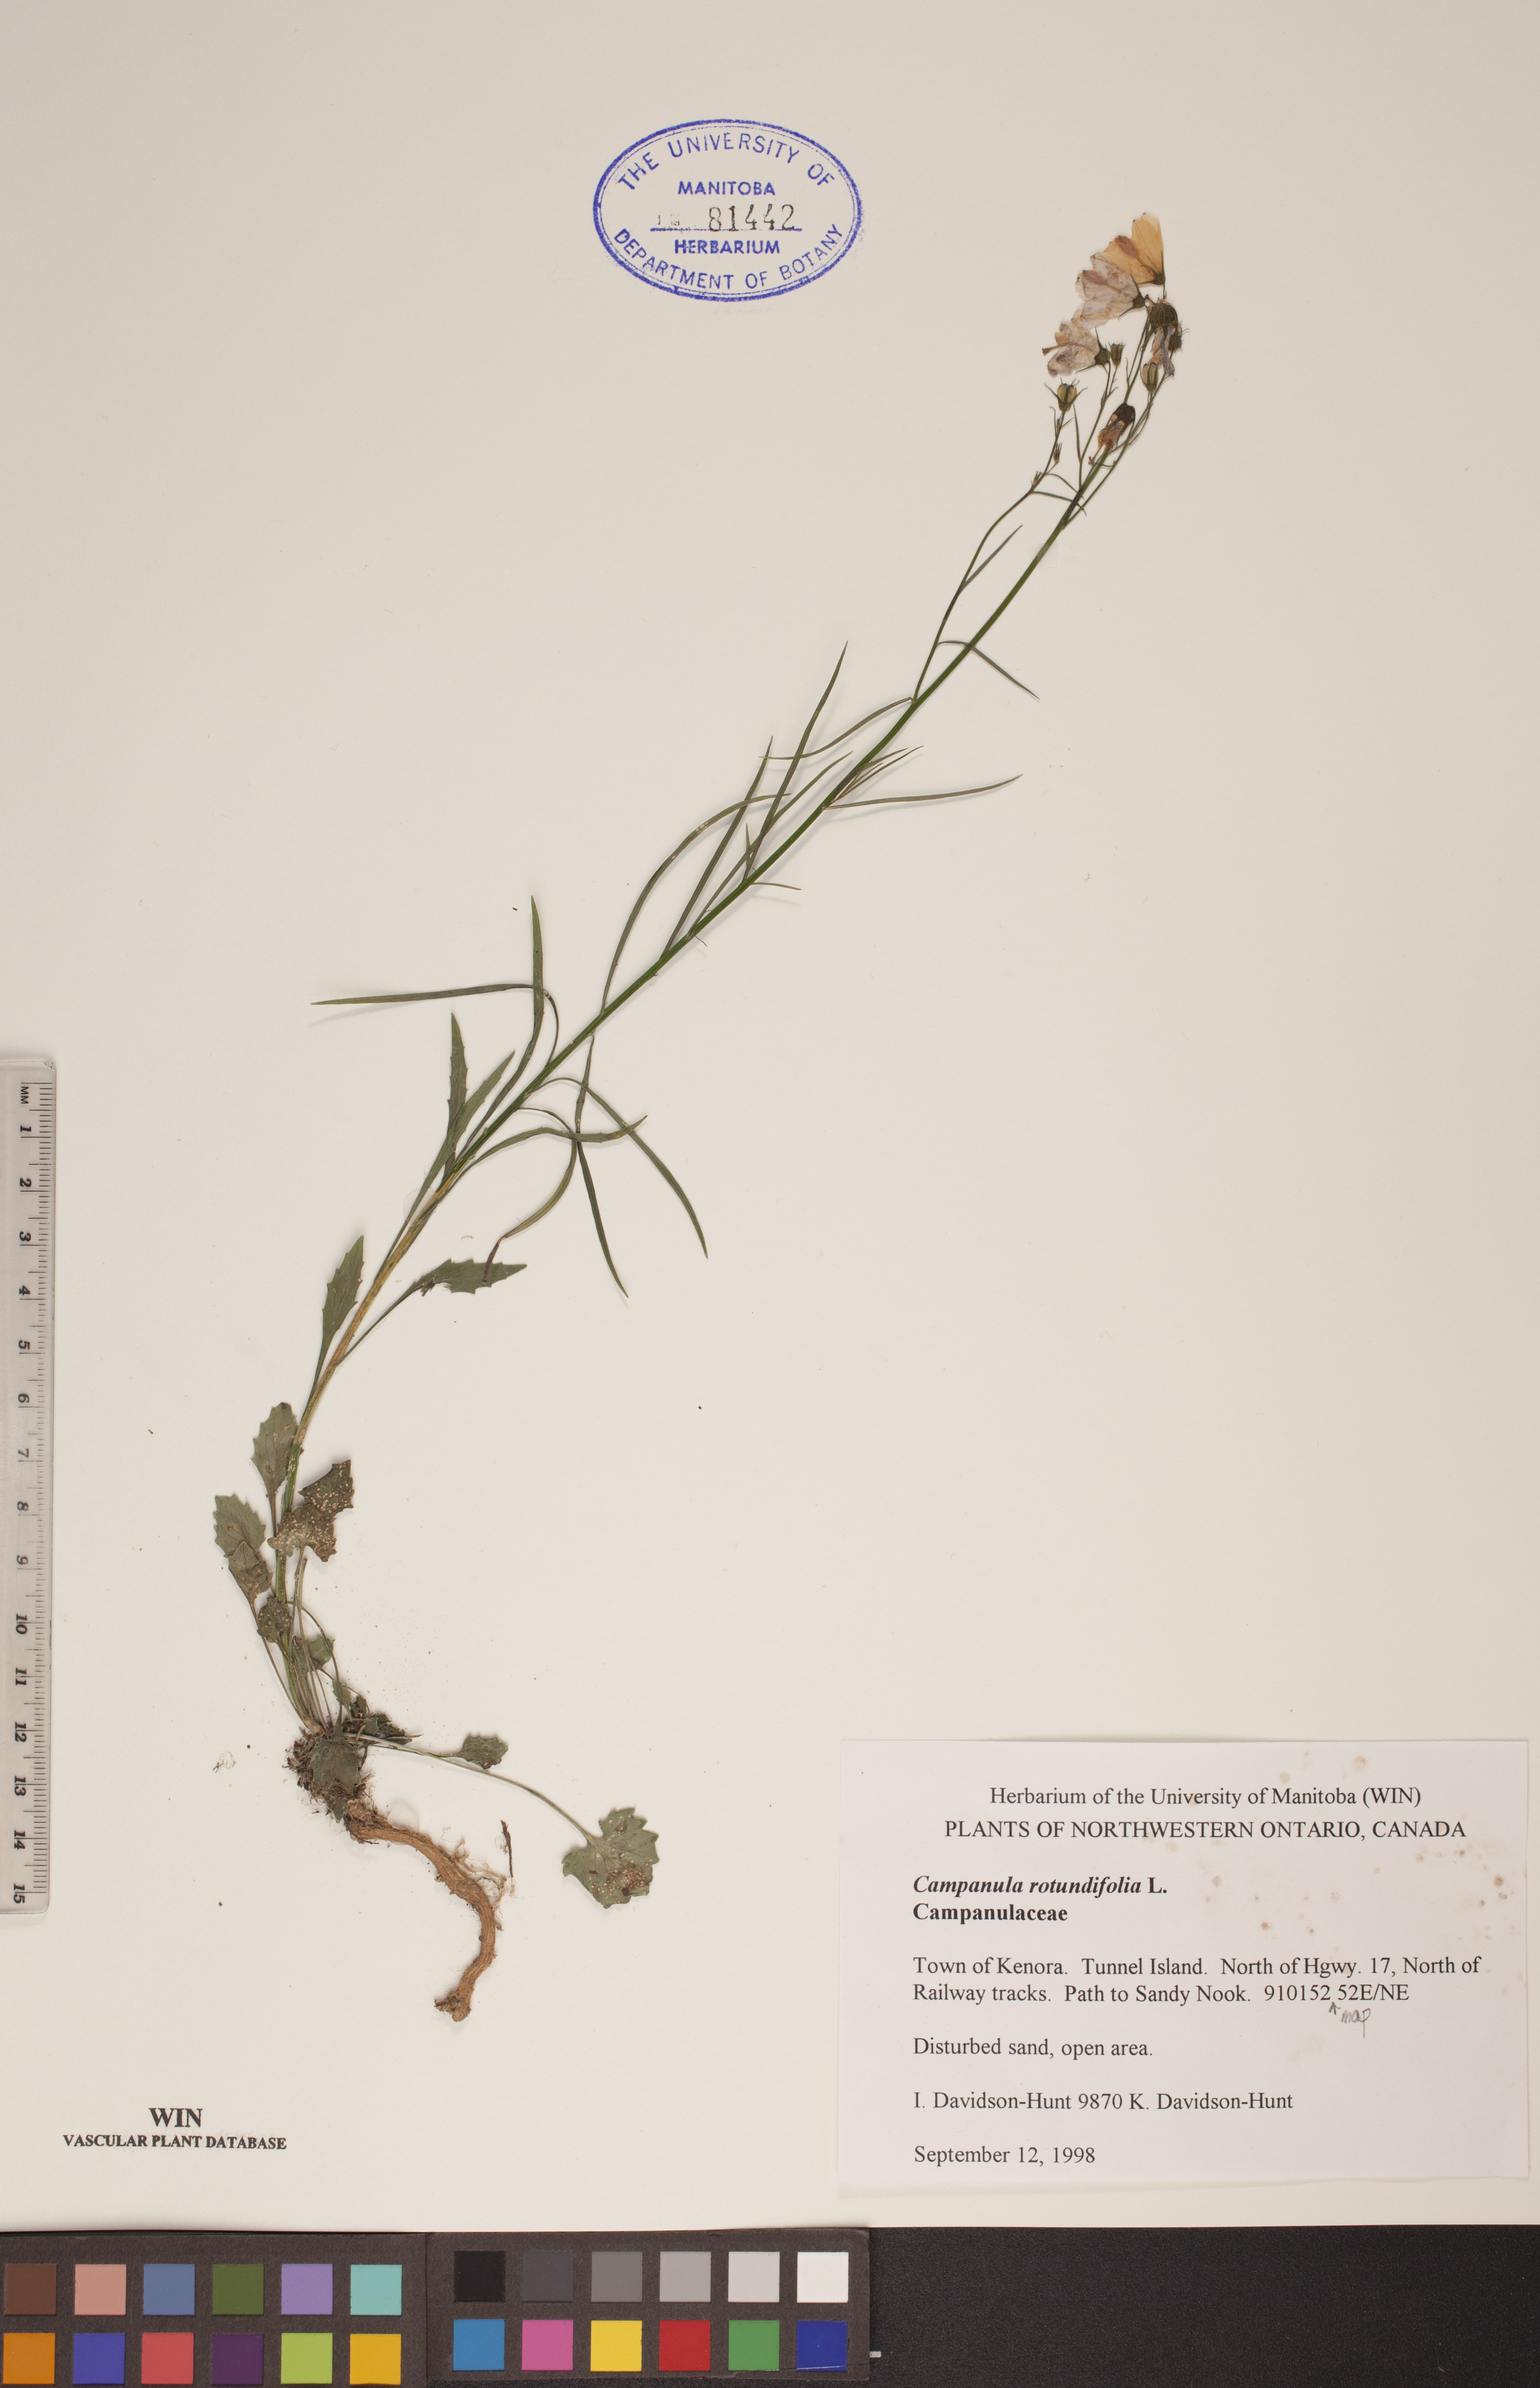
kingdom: Plantae
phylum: Tracheophyta
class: Magnoliopsida
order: Asterales
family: Campanulaceae
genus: Campanula
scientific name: Campanula rotundifolia
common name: Harebell
